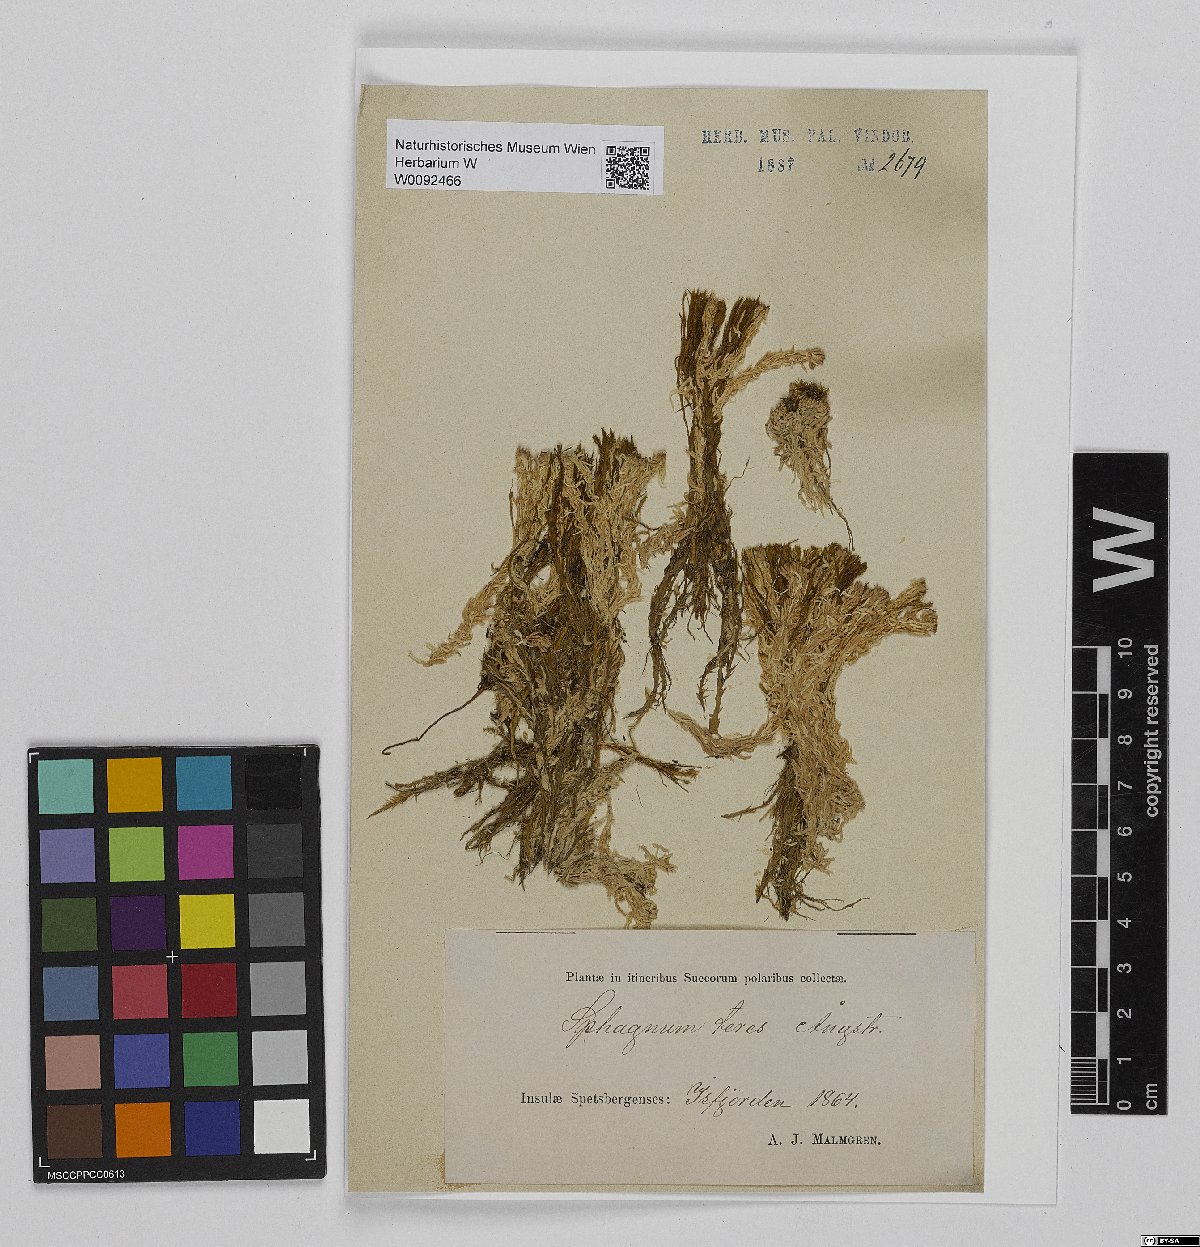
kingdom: Plantae
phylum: Bryophyta
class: Sphagnopsida
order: Sphagnales
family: Sphagnaceae
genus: Sphagnum
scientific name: Sphagnum teres
